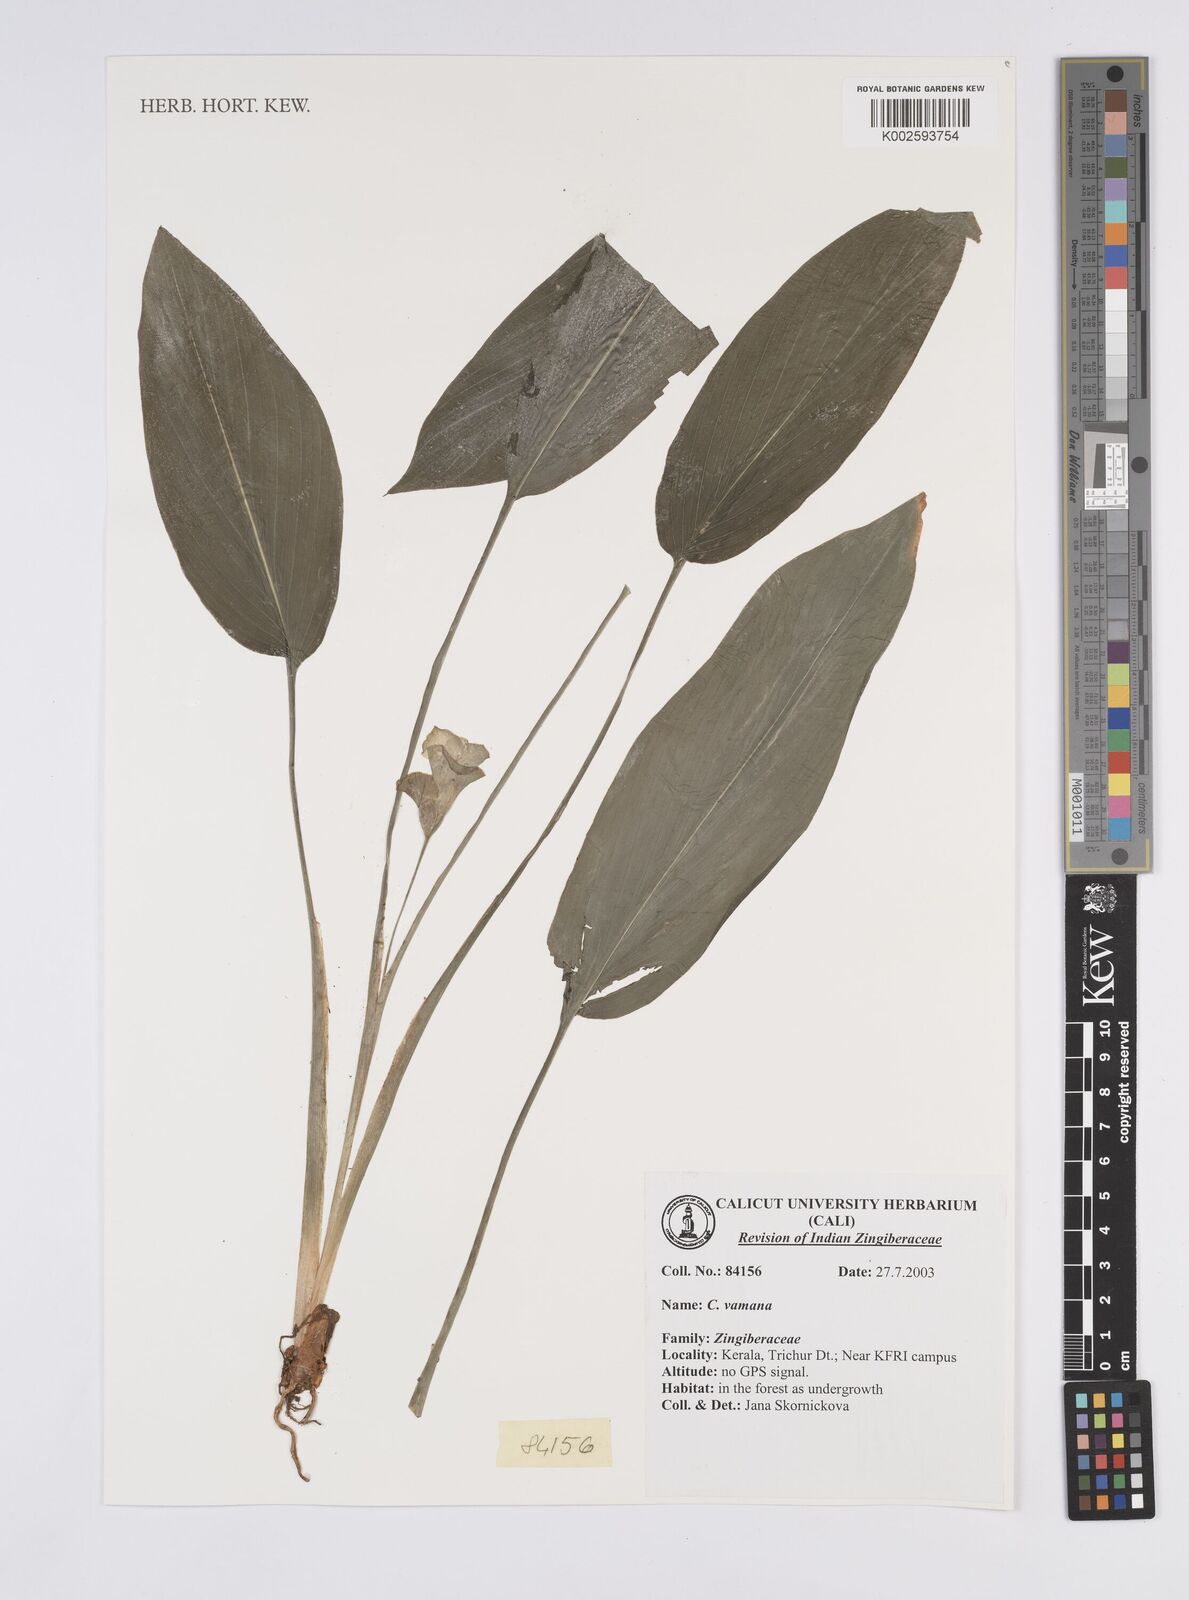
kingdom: Plantae
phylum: Tracheophyta
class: Liliopsida
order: Zingiberales
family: Zingiberaceae
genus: Curcuma
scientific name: Curcuma vamana
